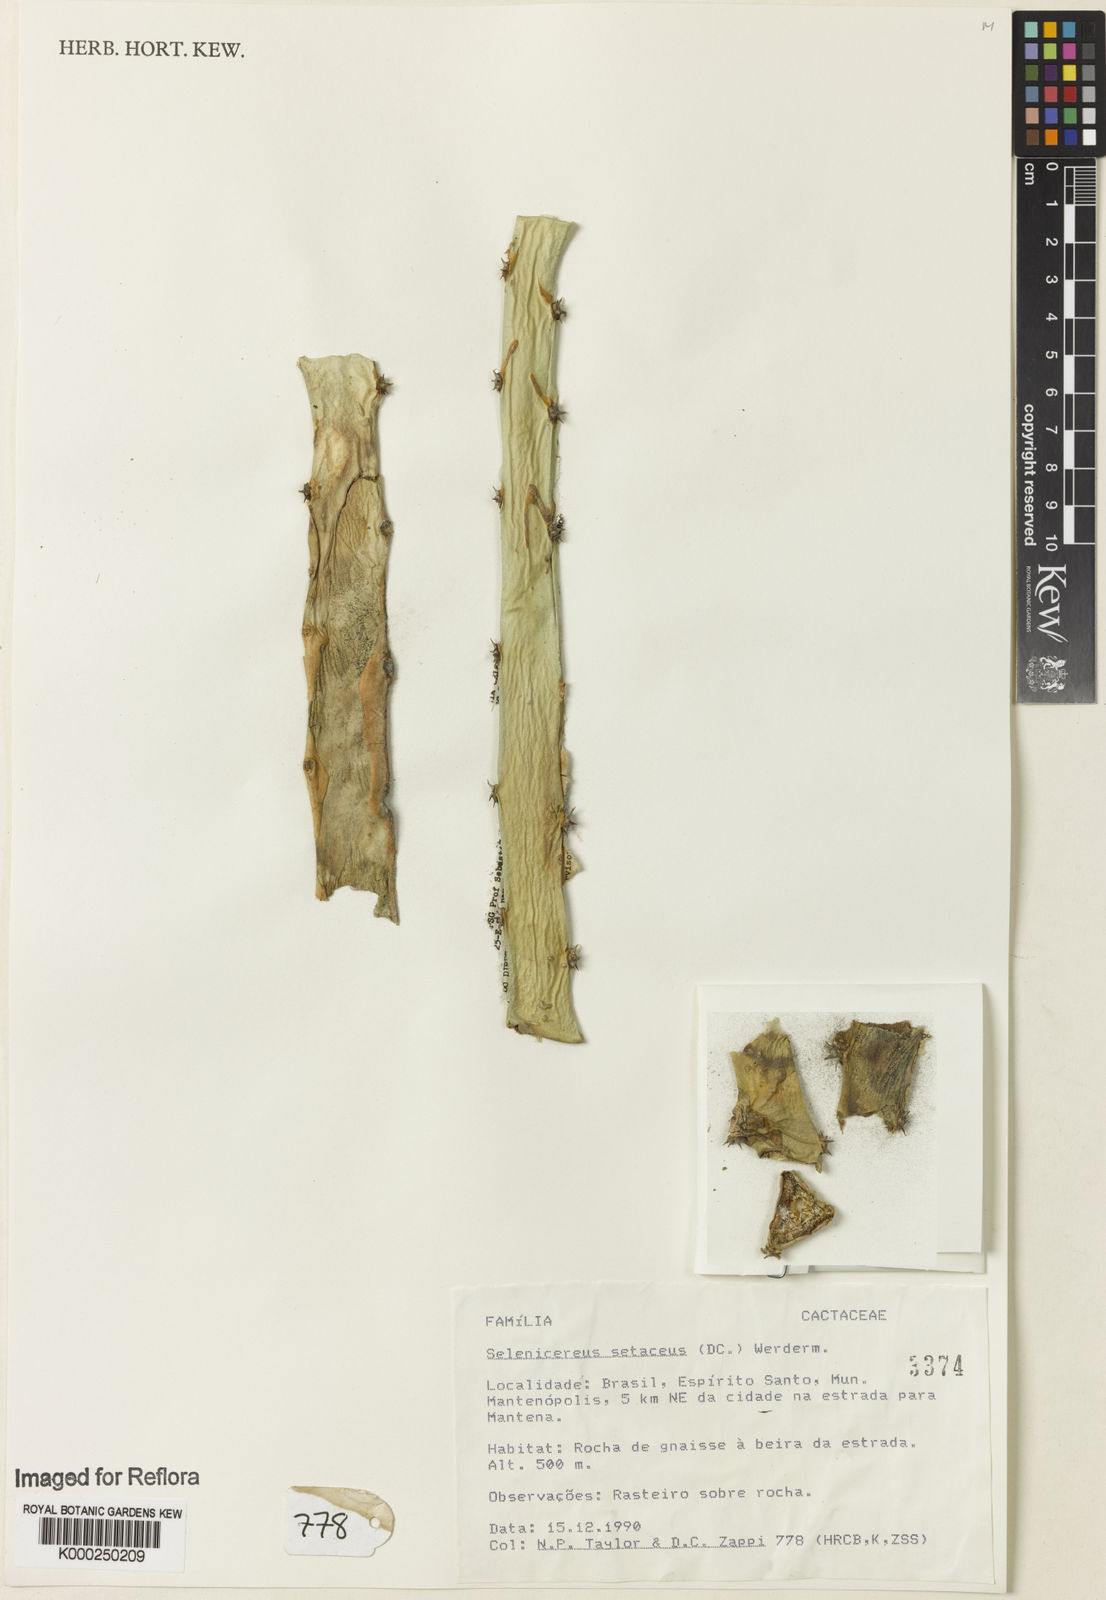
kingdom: Plantae
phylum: Tracheophyta
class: Magnoliopsida
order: Caryophyllales
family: Cactaceae
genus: Selenicereus
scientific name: Selenicereus
